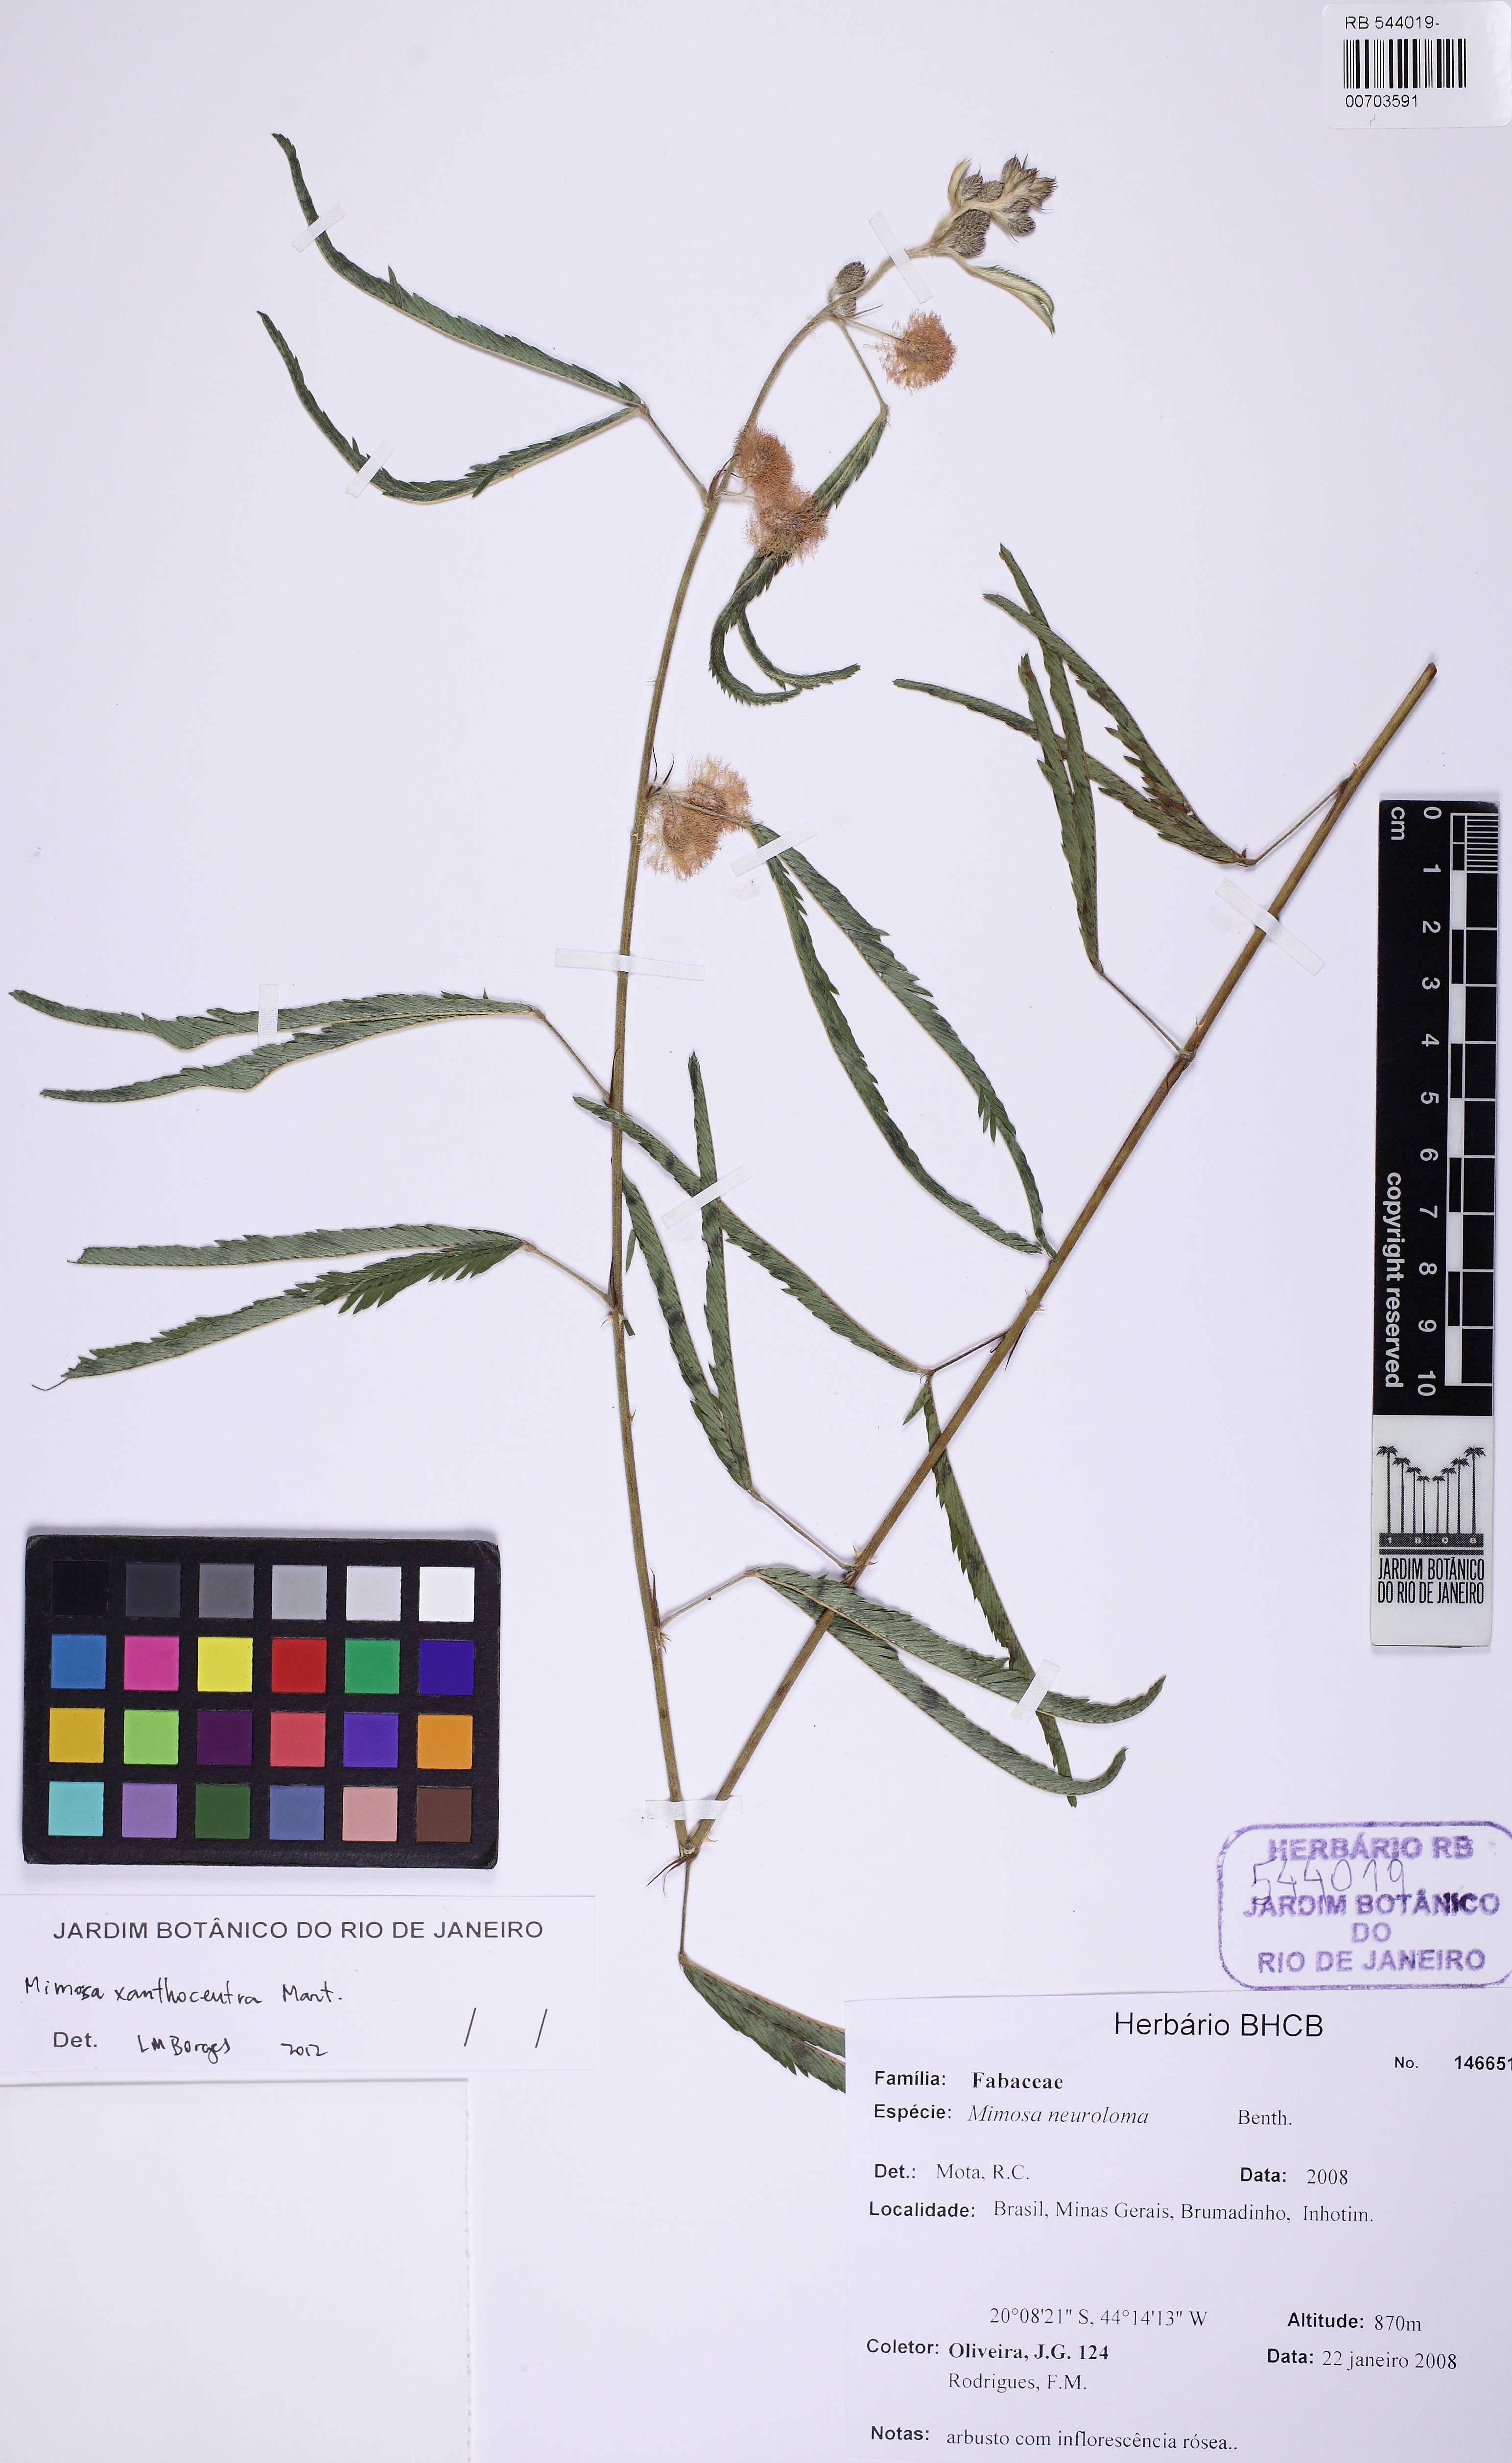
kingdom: Plantae
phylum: Tracheophyta
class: Magnoliopsida
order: Fabales
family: Fabaceae
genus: Mimosa
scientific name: Mimosa xanthocentra
